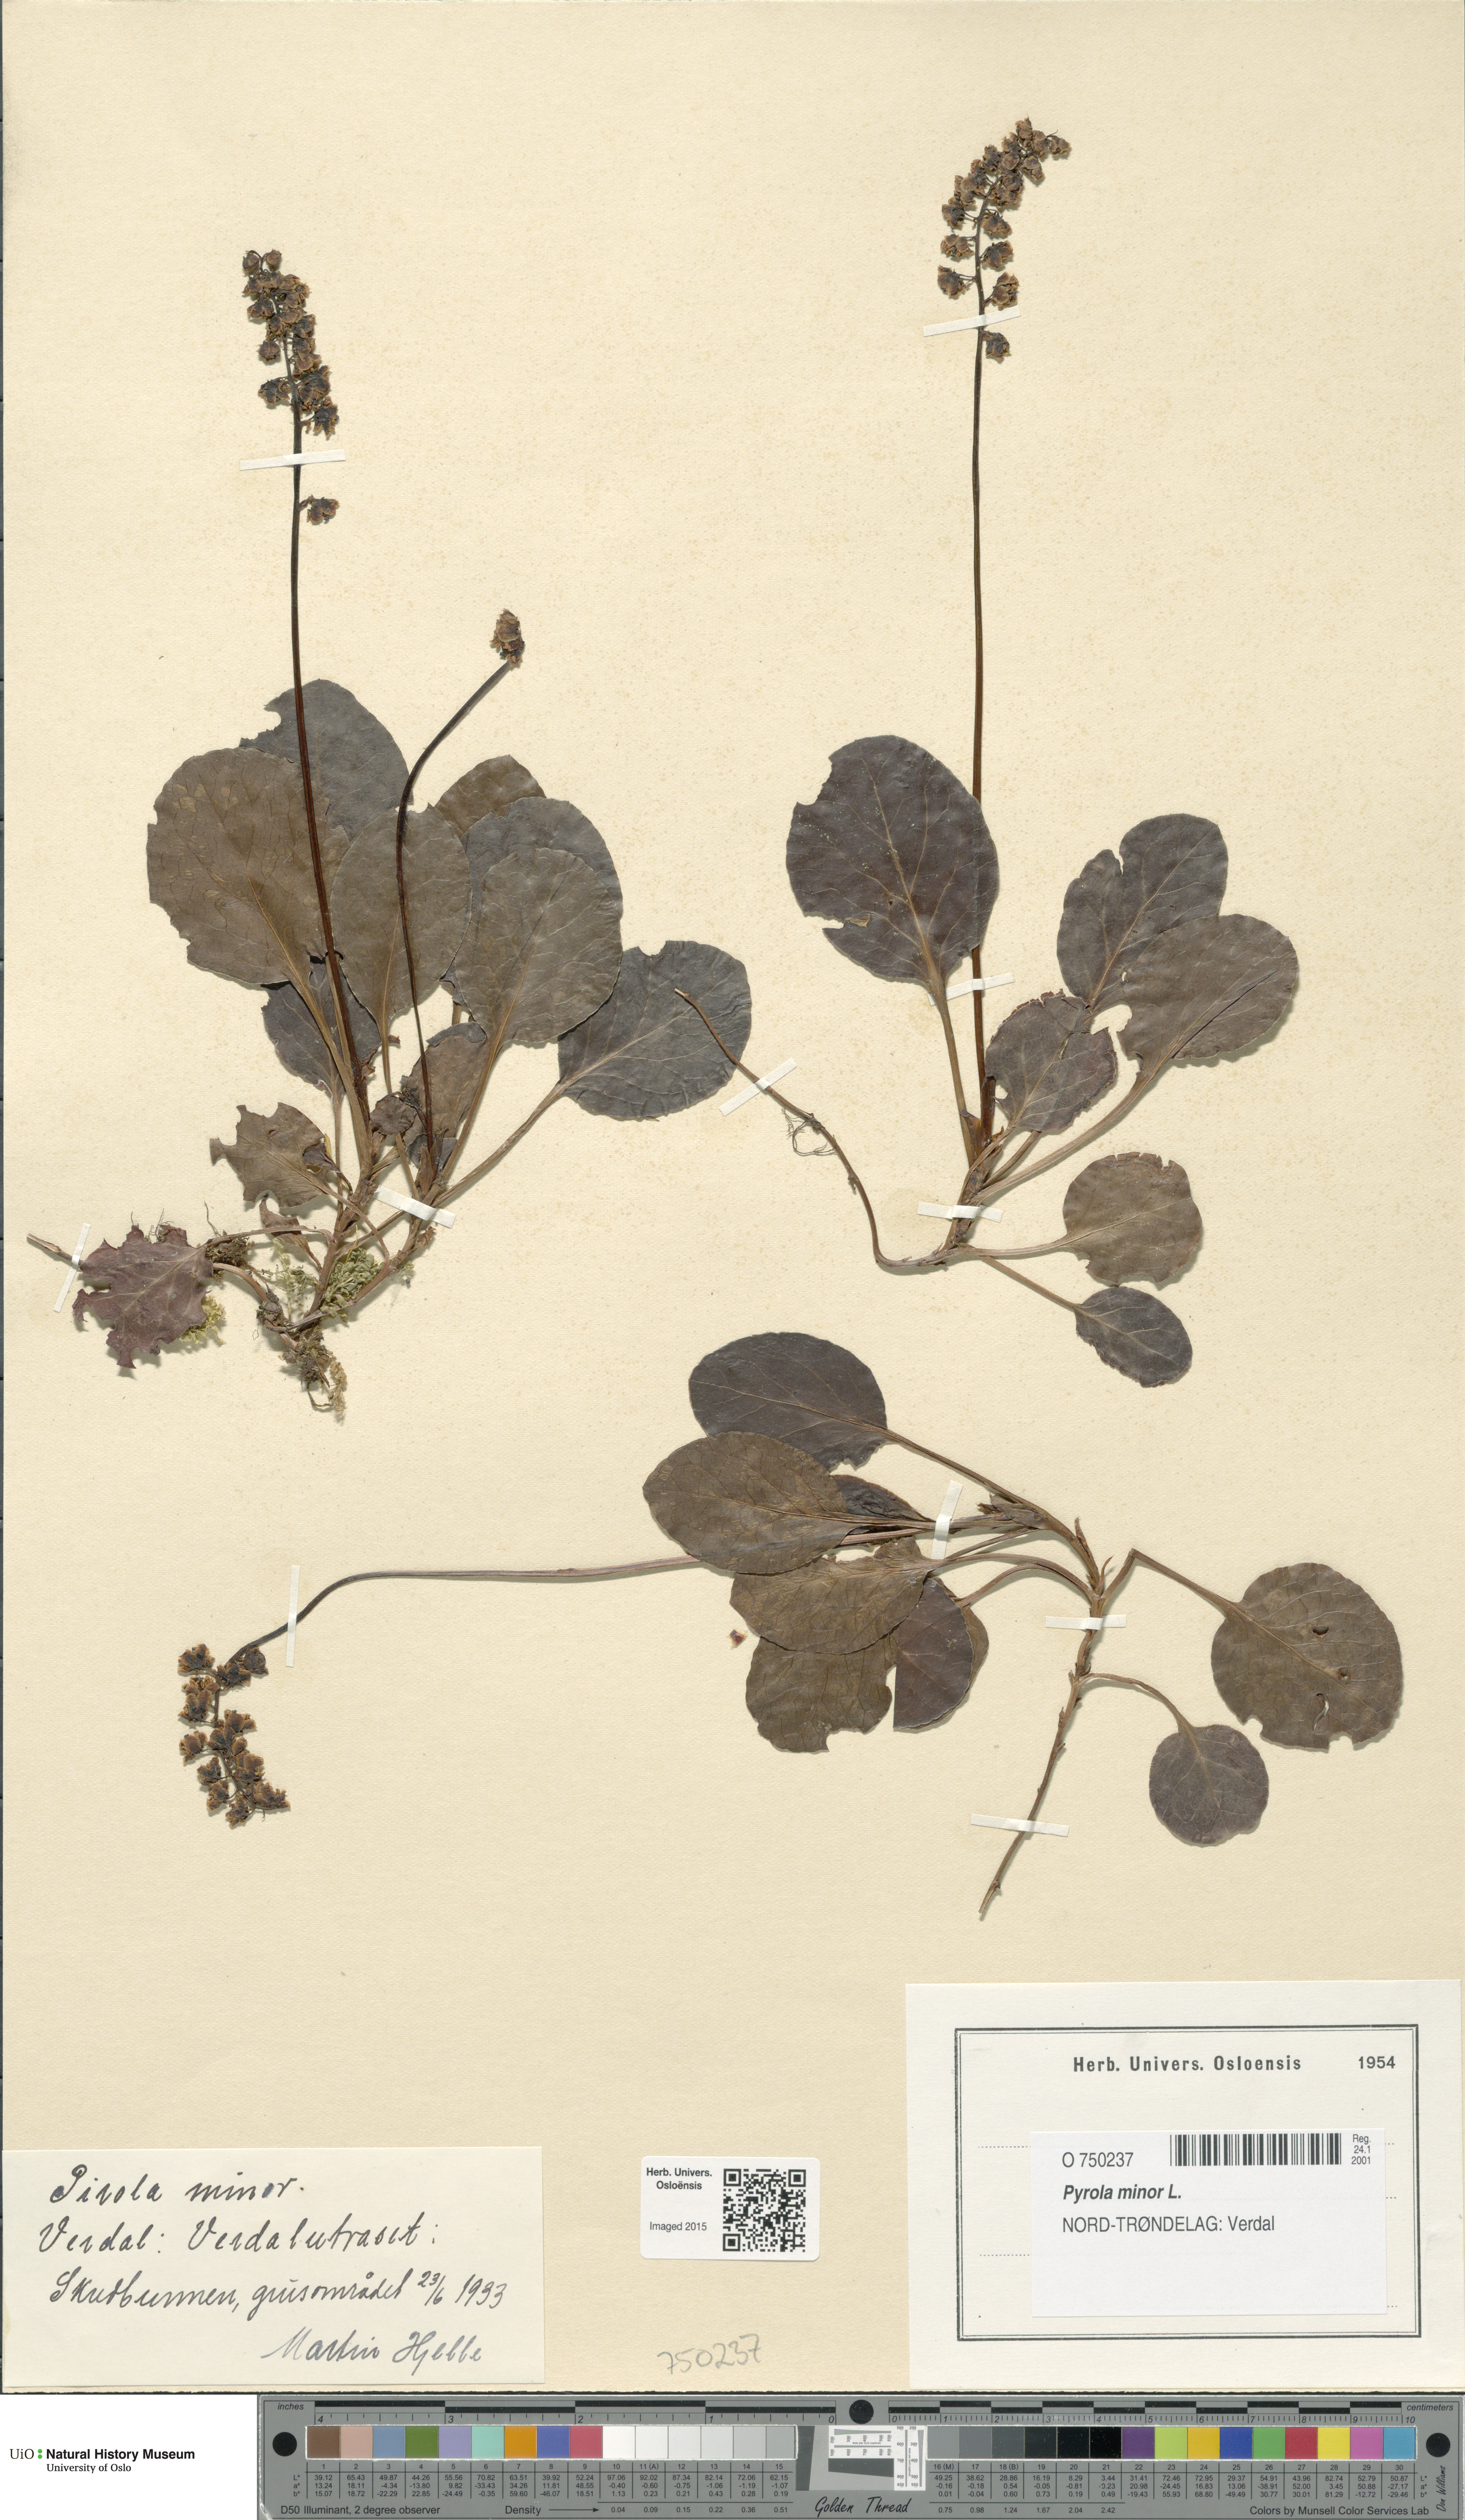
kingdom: Plantae
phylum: Tracheophyta
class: Magnoliopsida
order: Ericales
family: Ericaceae
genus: Pyrola
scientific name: Pyrola minor
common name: Common wintergreen
